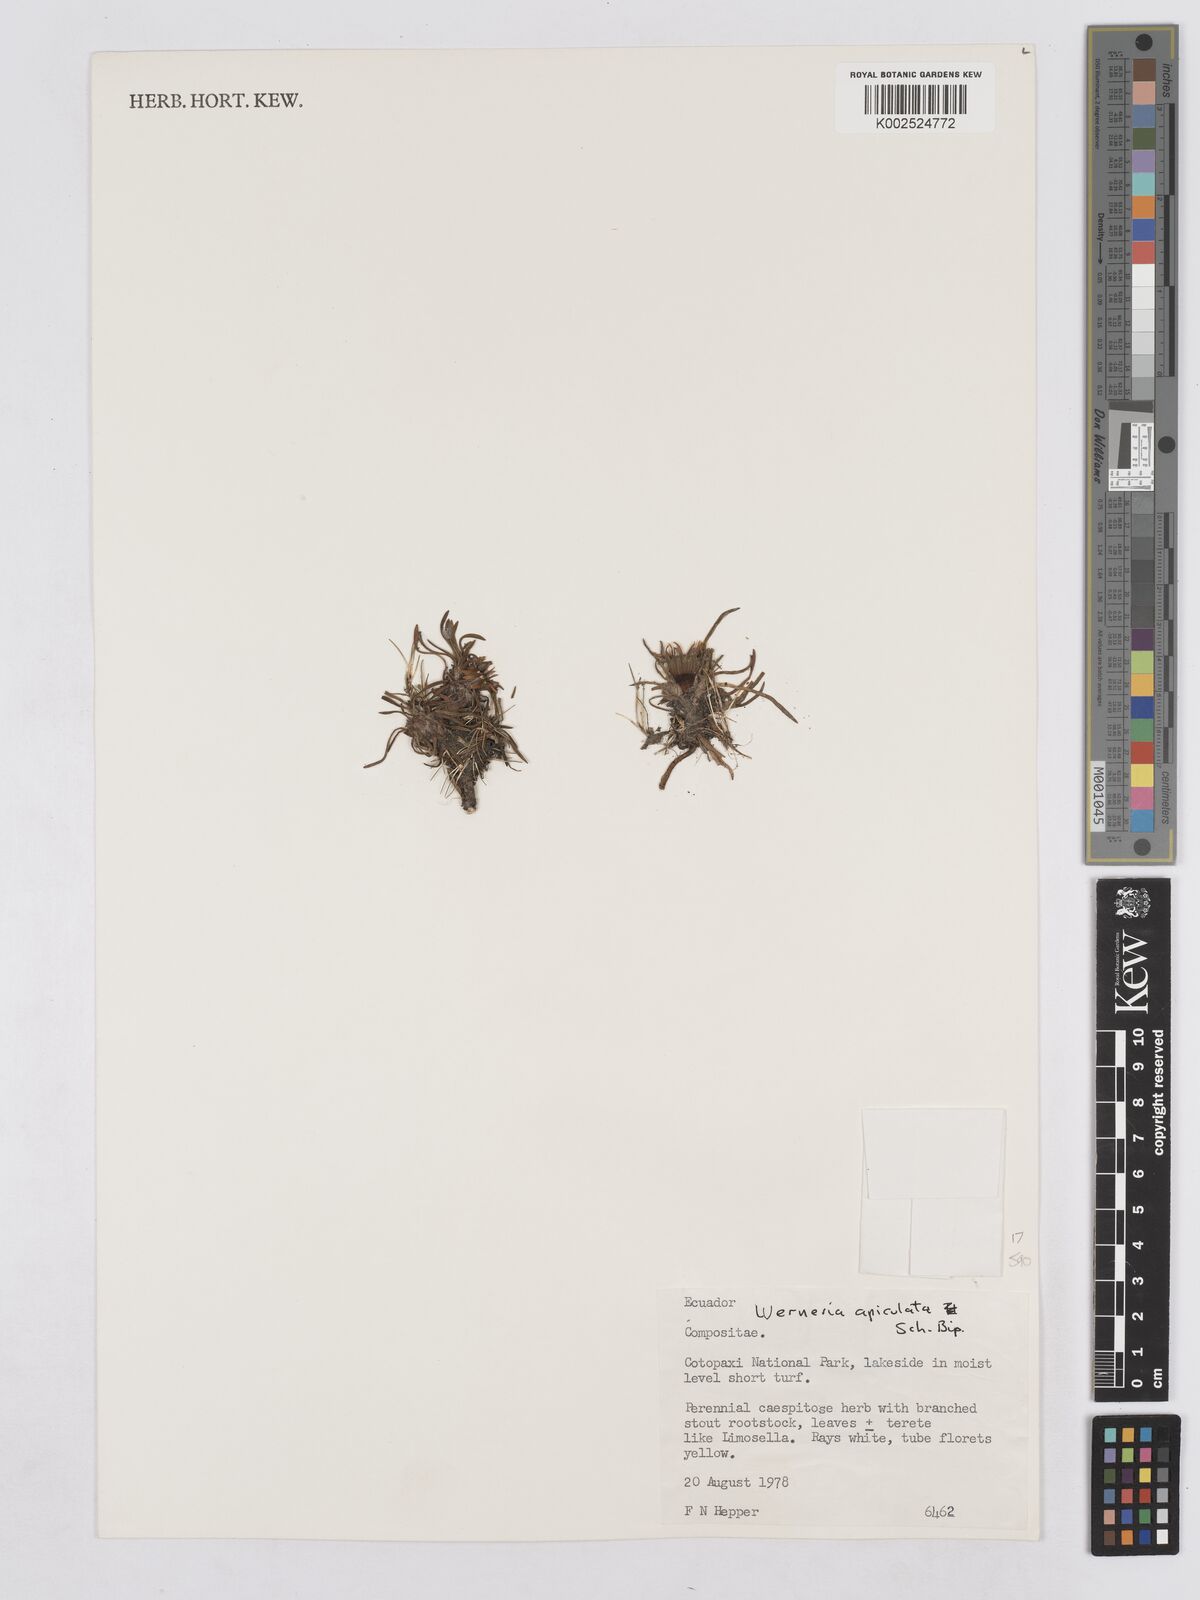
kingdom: Plantae
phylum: Tracheophyta
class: Magnoliopsida
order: Asterales
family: Asteraceae
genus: Rockhausenia
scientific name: Rockhausenia apiculata
